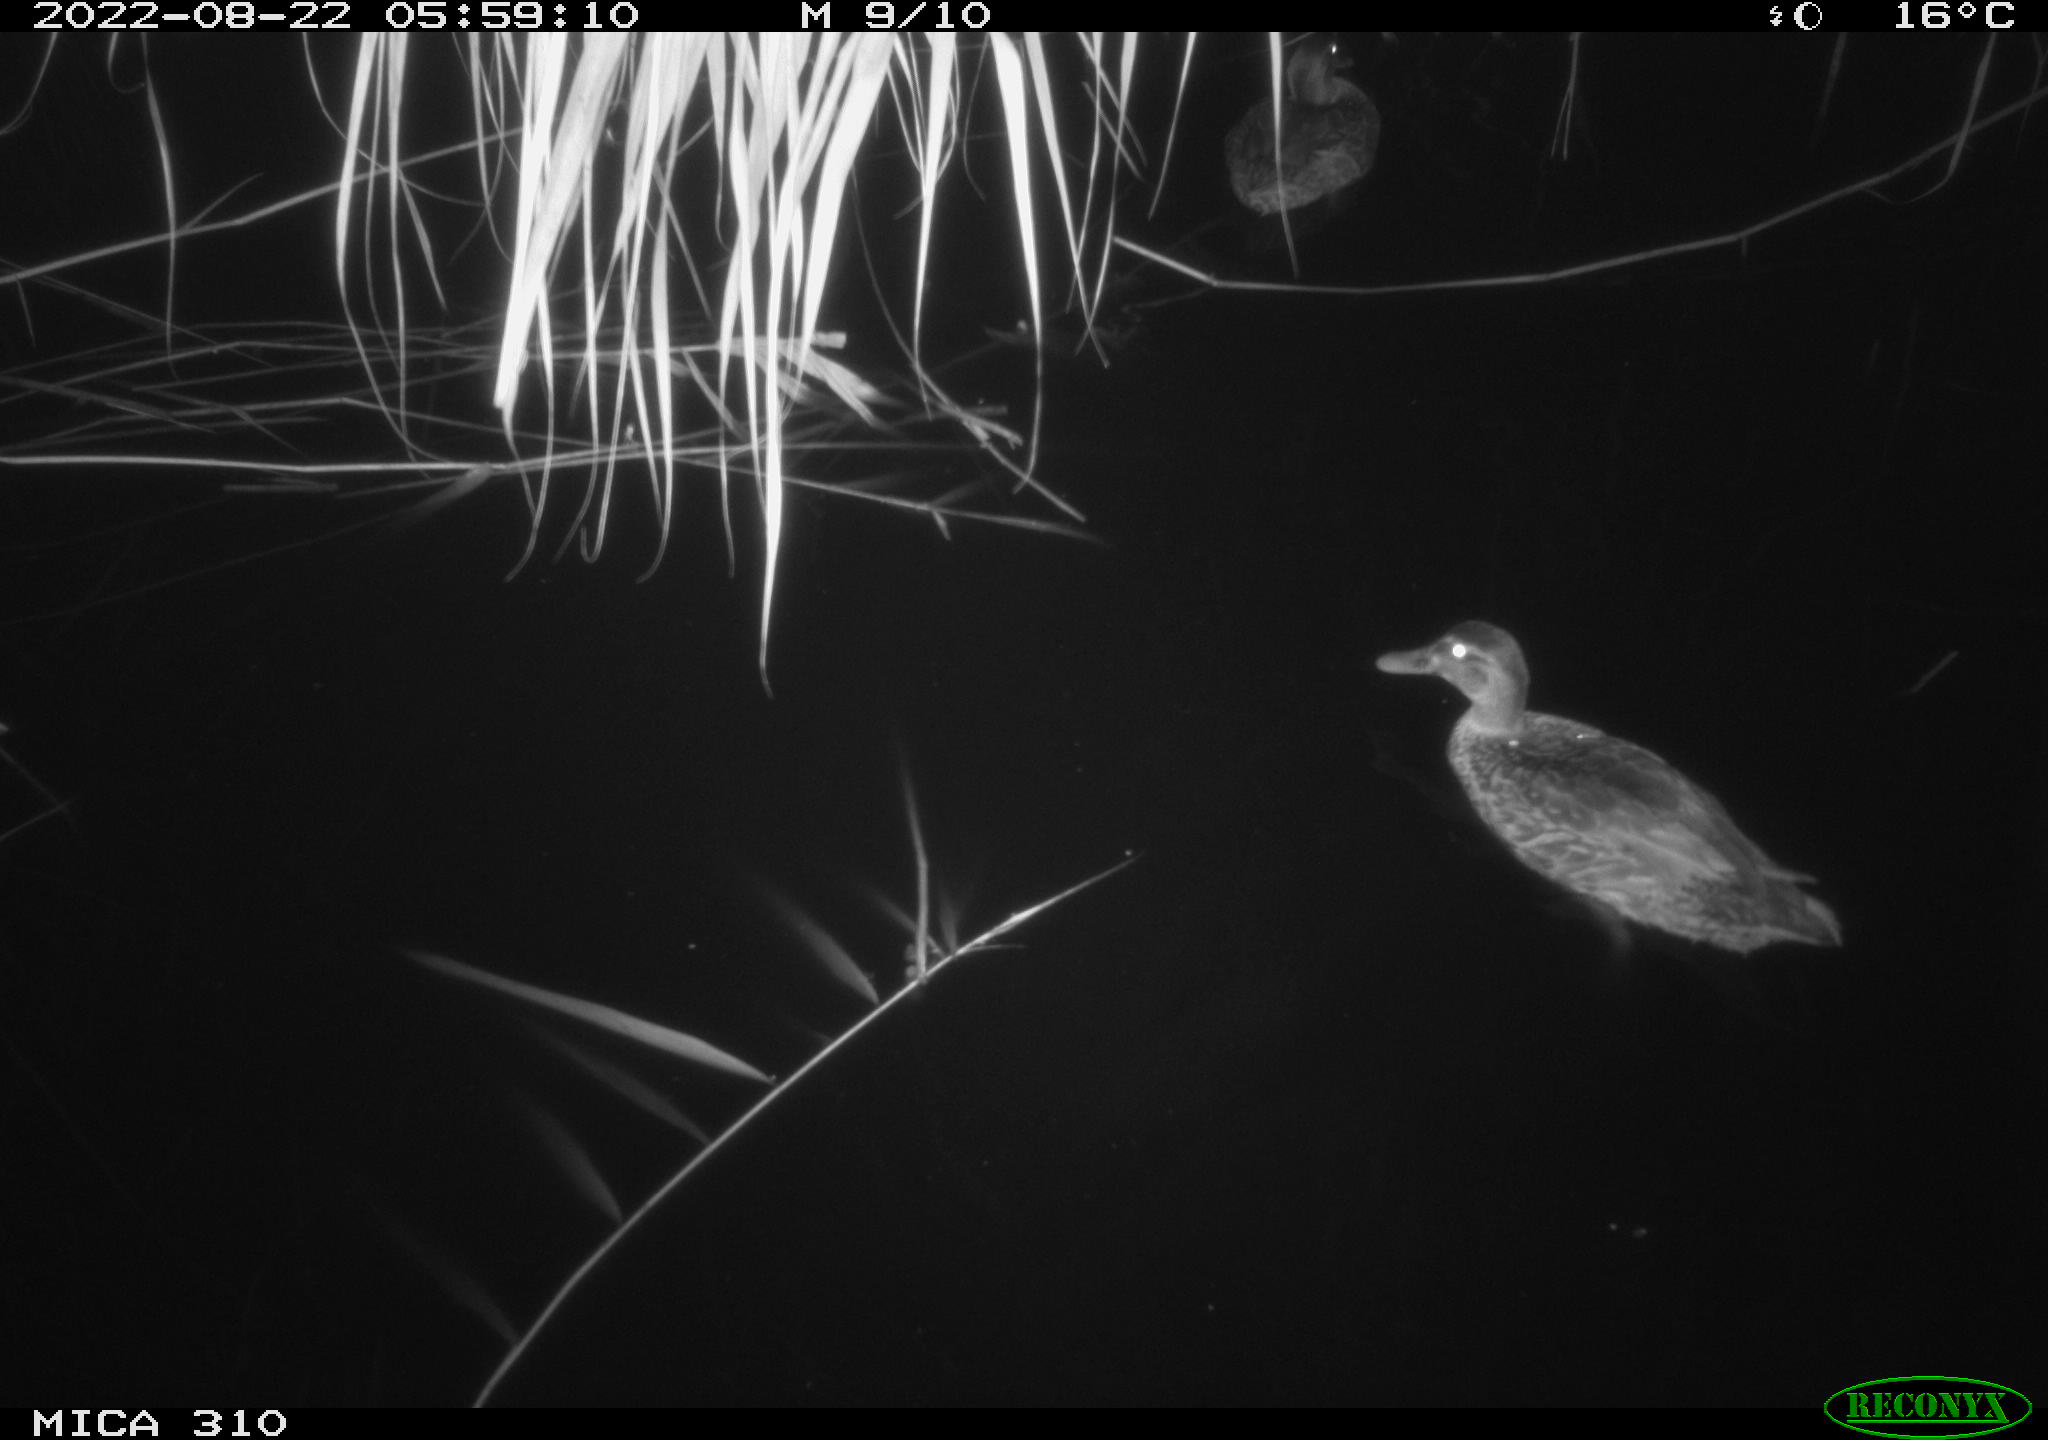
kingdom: Animalia
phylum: Chordata
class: Aves
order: Anseriformes
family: Anatidae
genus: Anas
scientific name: Anas platyrhynchos
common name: Mallard
